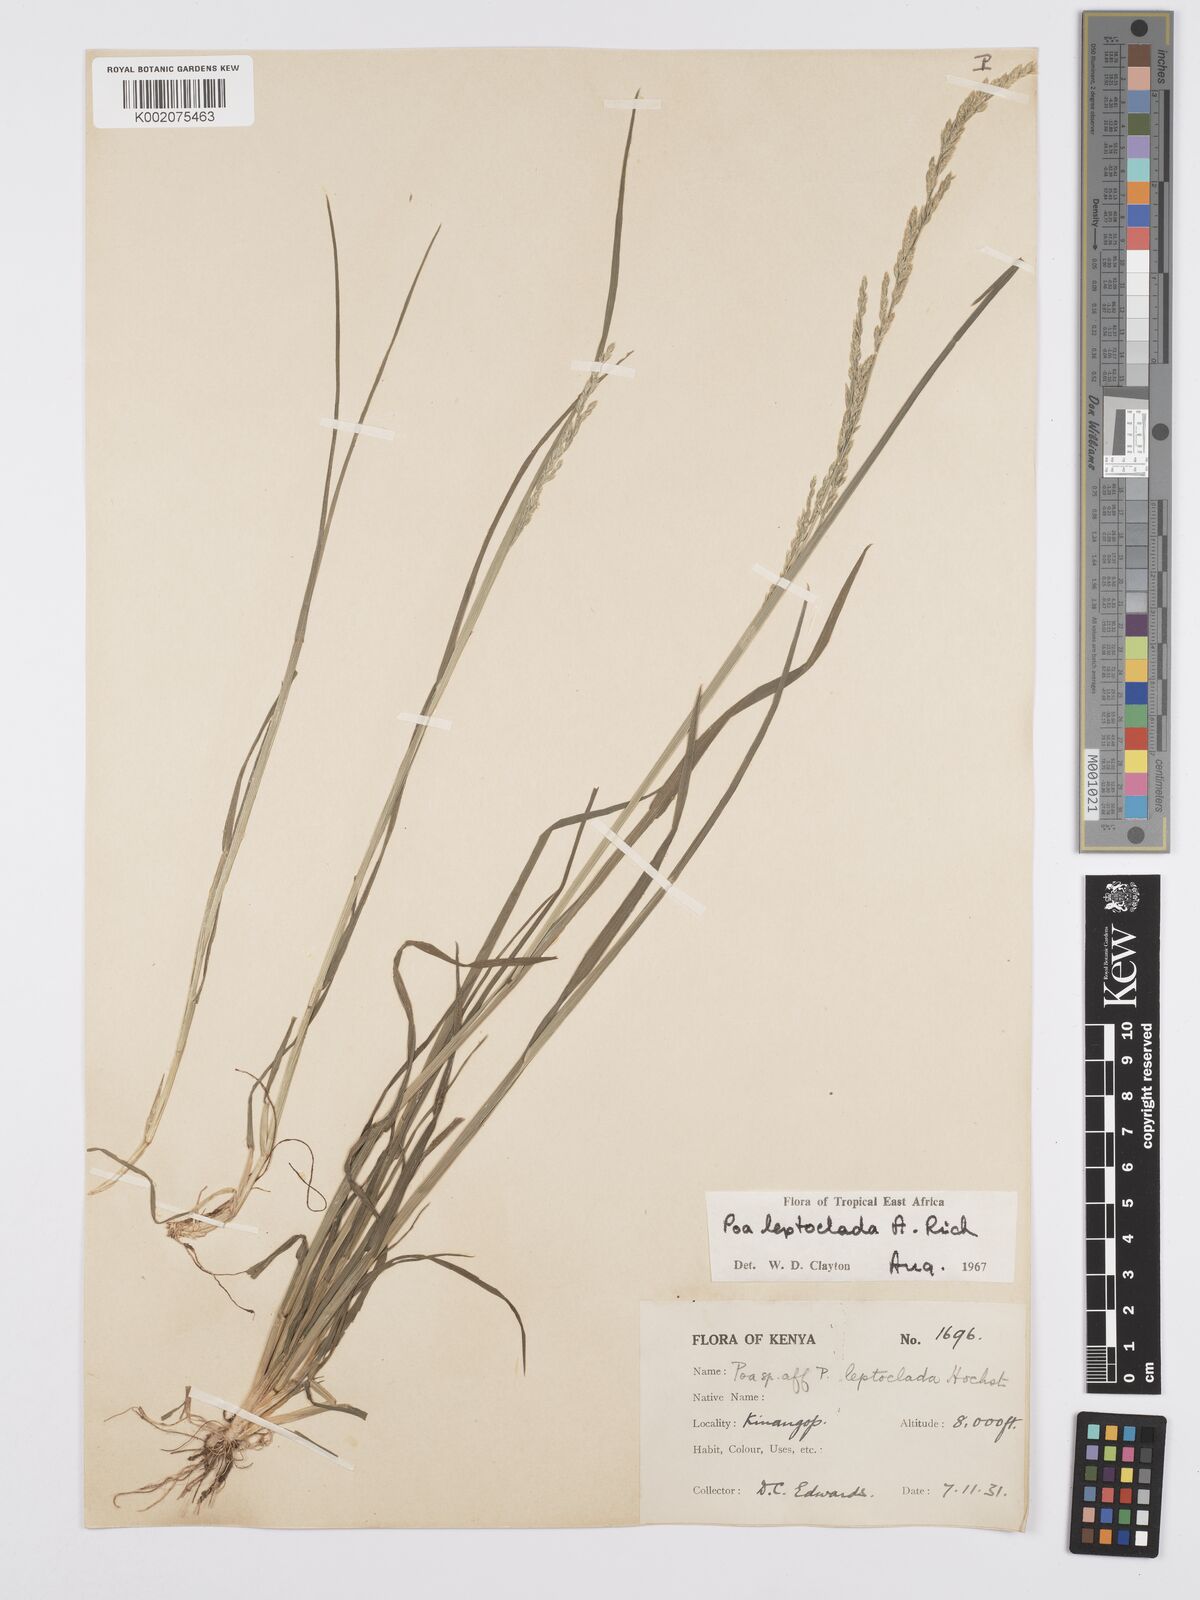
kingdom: Plantae
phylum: Tracheophyta
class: Liliopsida
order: Poales
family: Poaceae
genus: Poa
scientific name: Poa leptoclada
